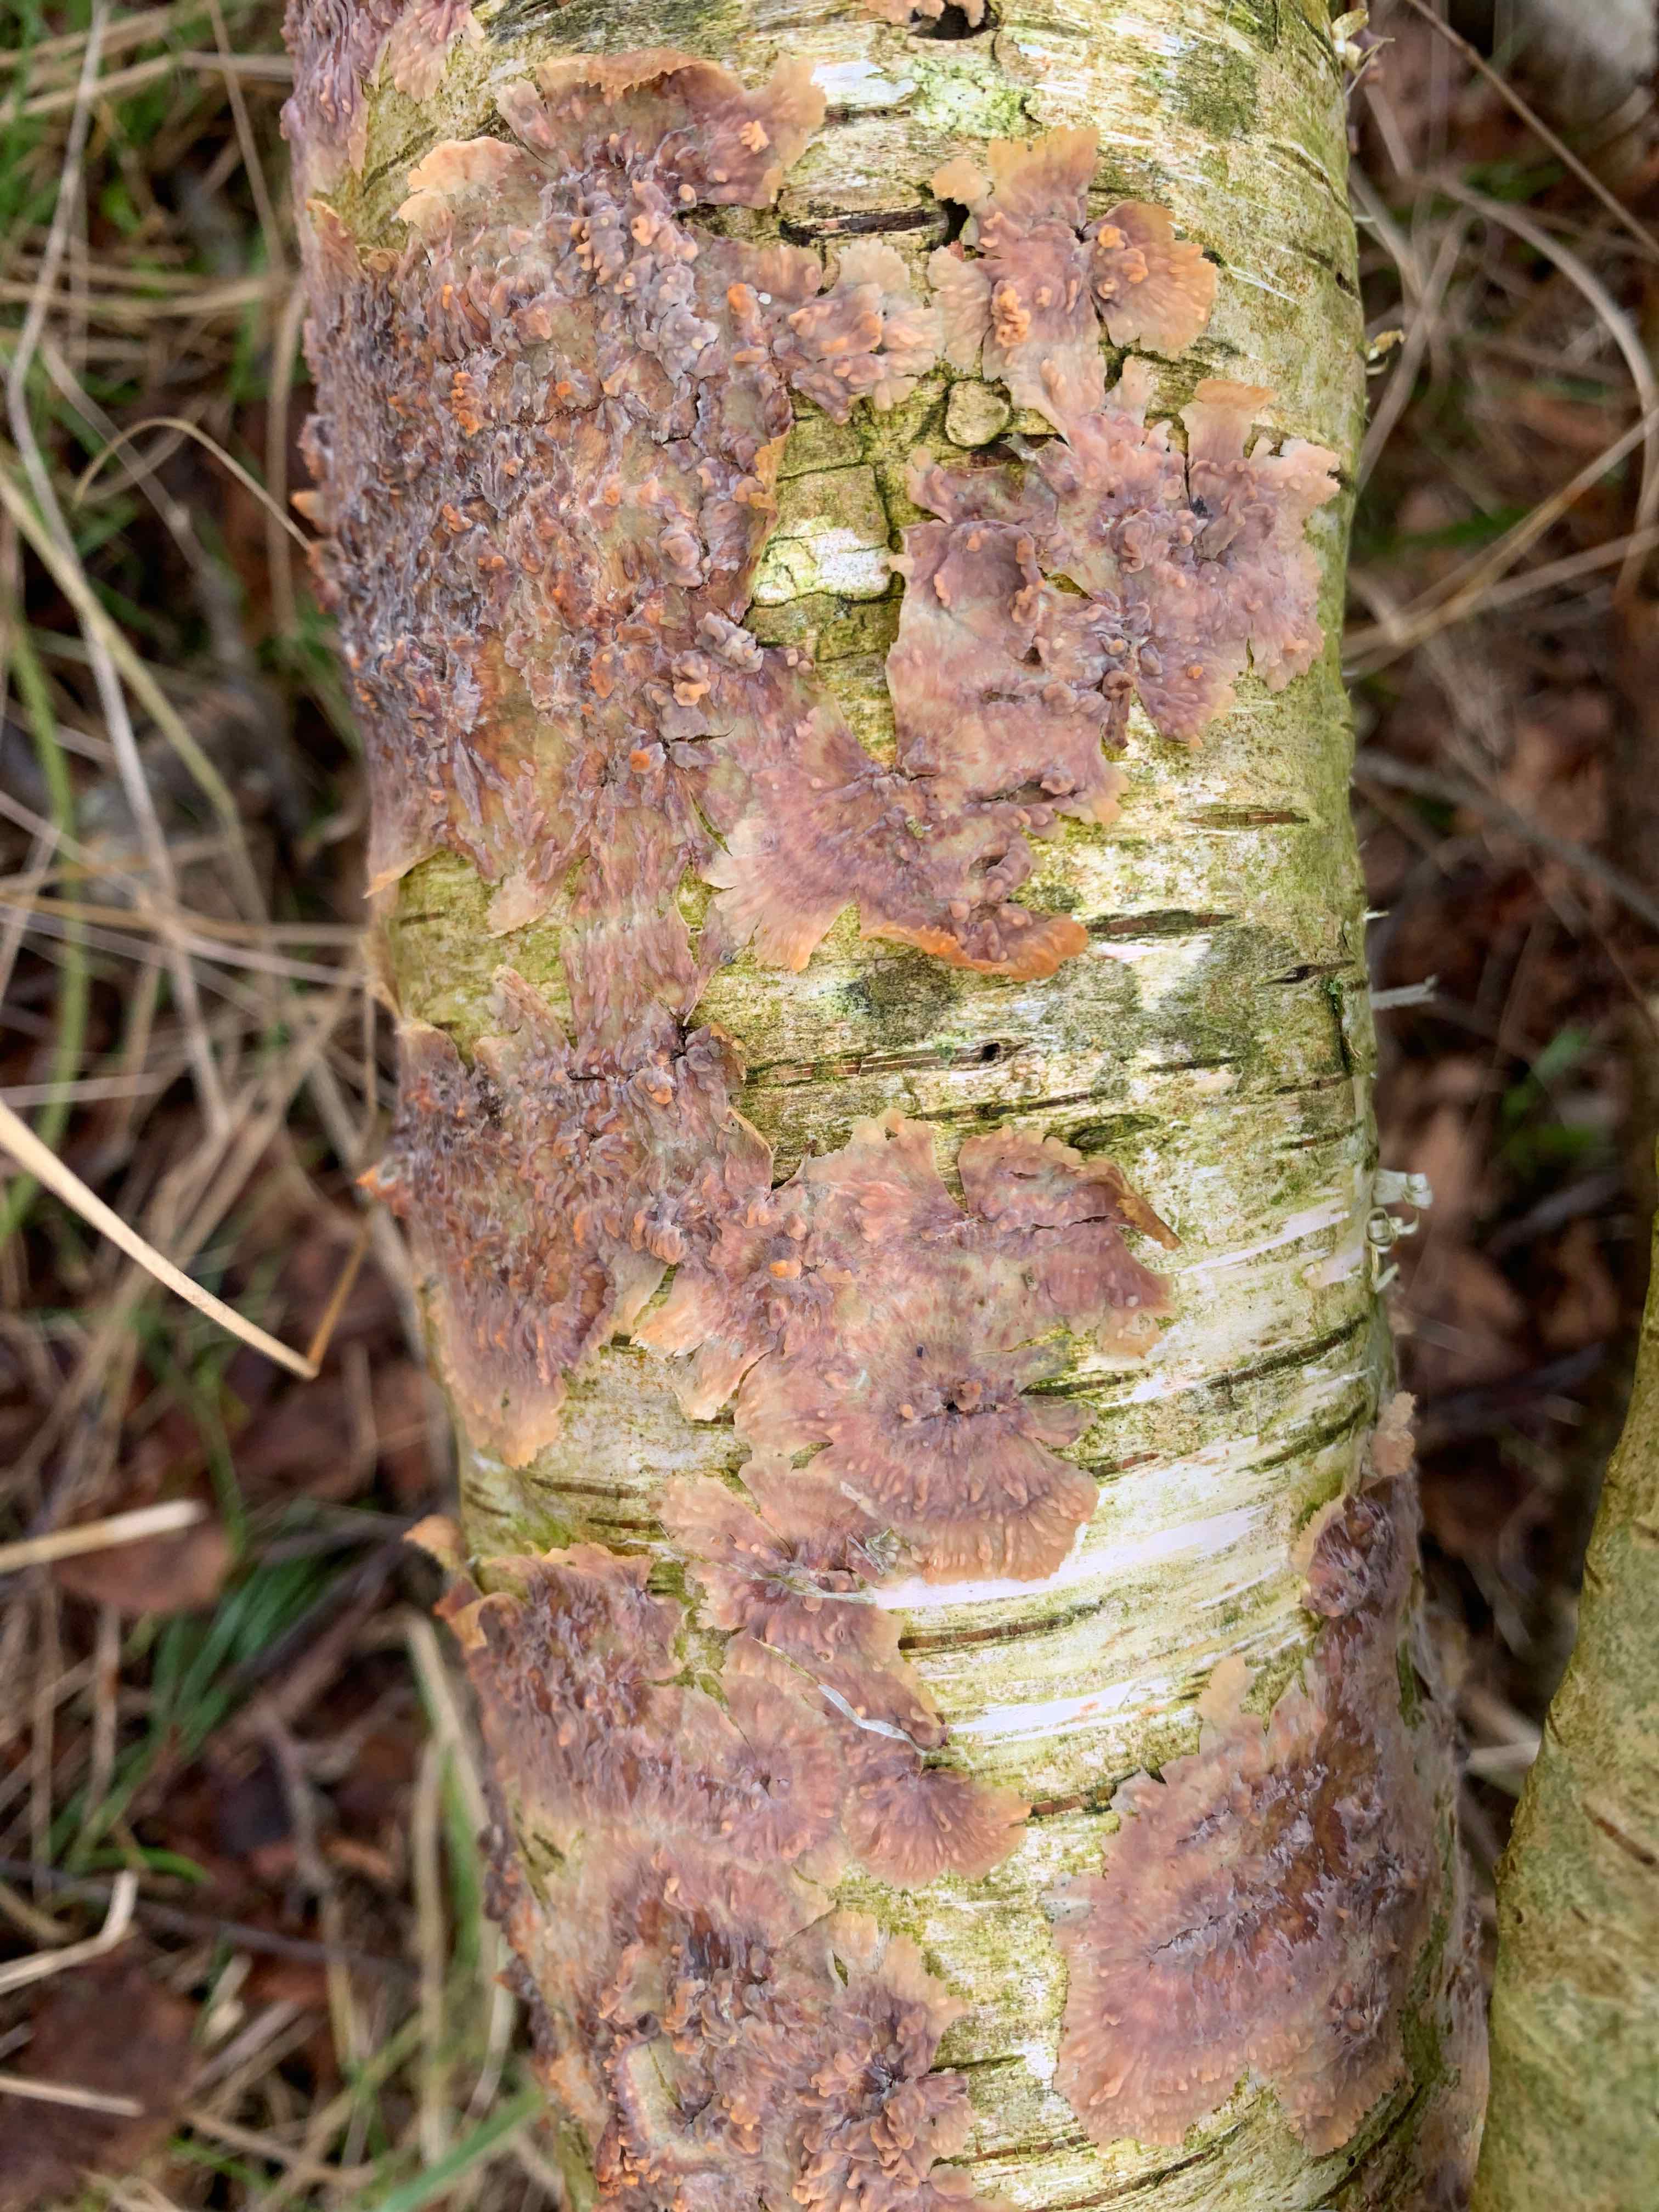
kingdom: Fungi
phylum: Basidiomycota
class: Agaricomycetes
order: Polyporales
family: Meruliaceae
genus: Phlebia
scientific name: Phlebia radiata
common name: stråle-åresvamp
